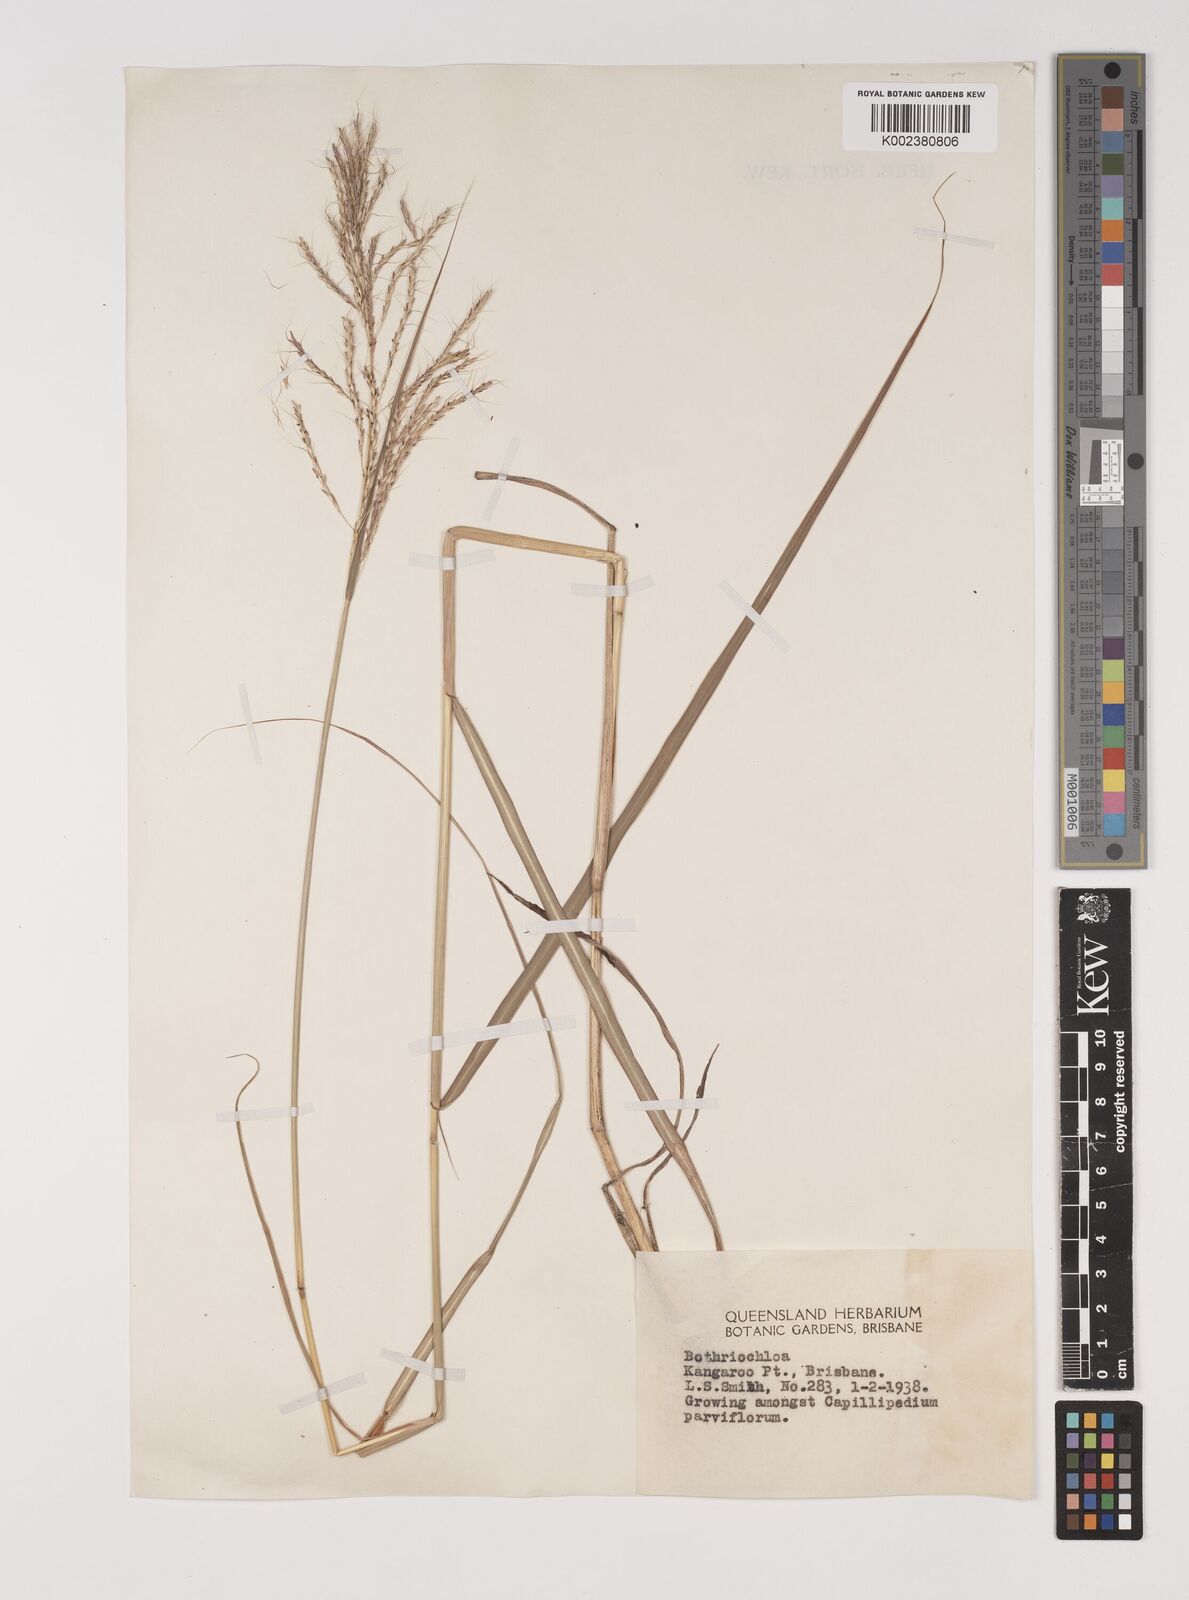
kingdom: Plantae
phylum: Tracheophyta
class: Liliopsida
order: Poales
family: Poaceae
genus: Bothriochloa
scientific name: Bothriochloa bladhii
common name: Caucasian bluestem
